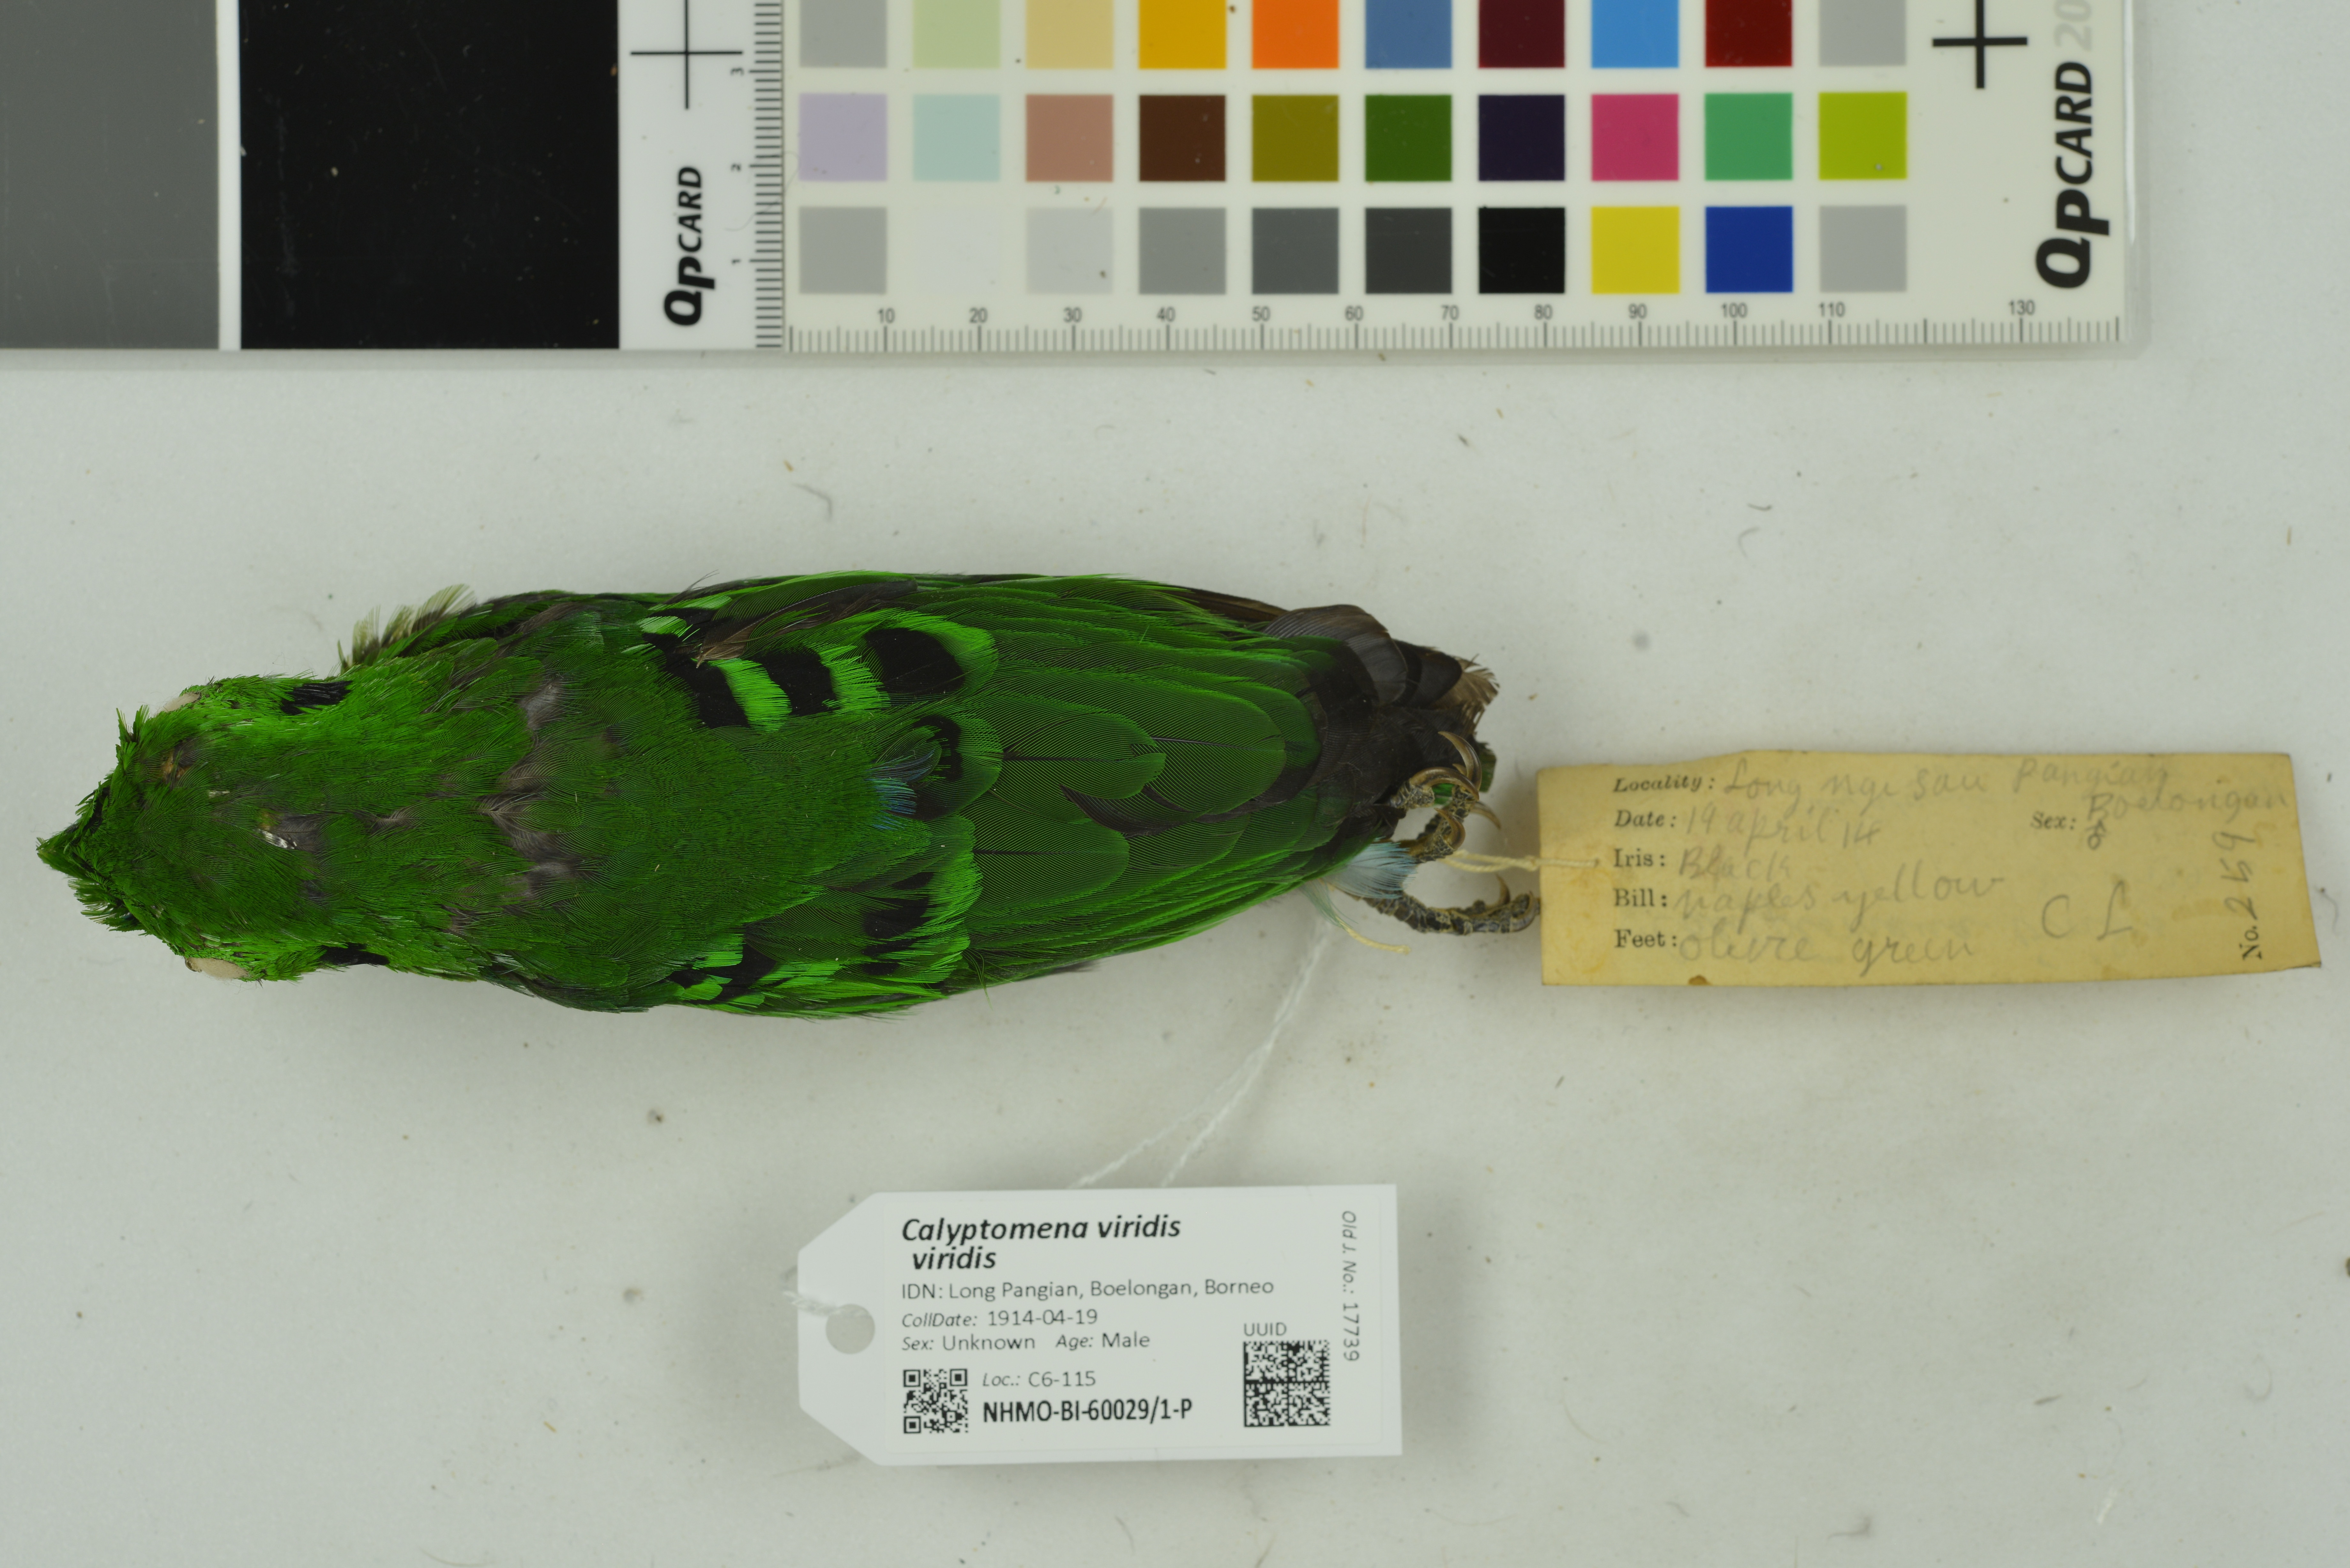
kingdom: Animalia
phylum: Chordata
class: Aves
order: Passeriformes
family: Eurylaimidae
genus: Calyptomena
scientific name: Calyptomena viridis
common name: Green broadbill
